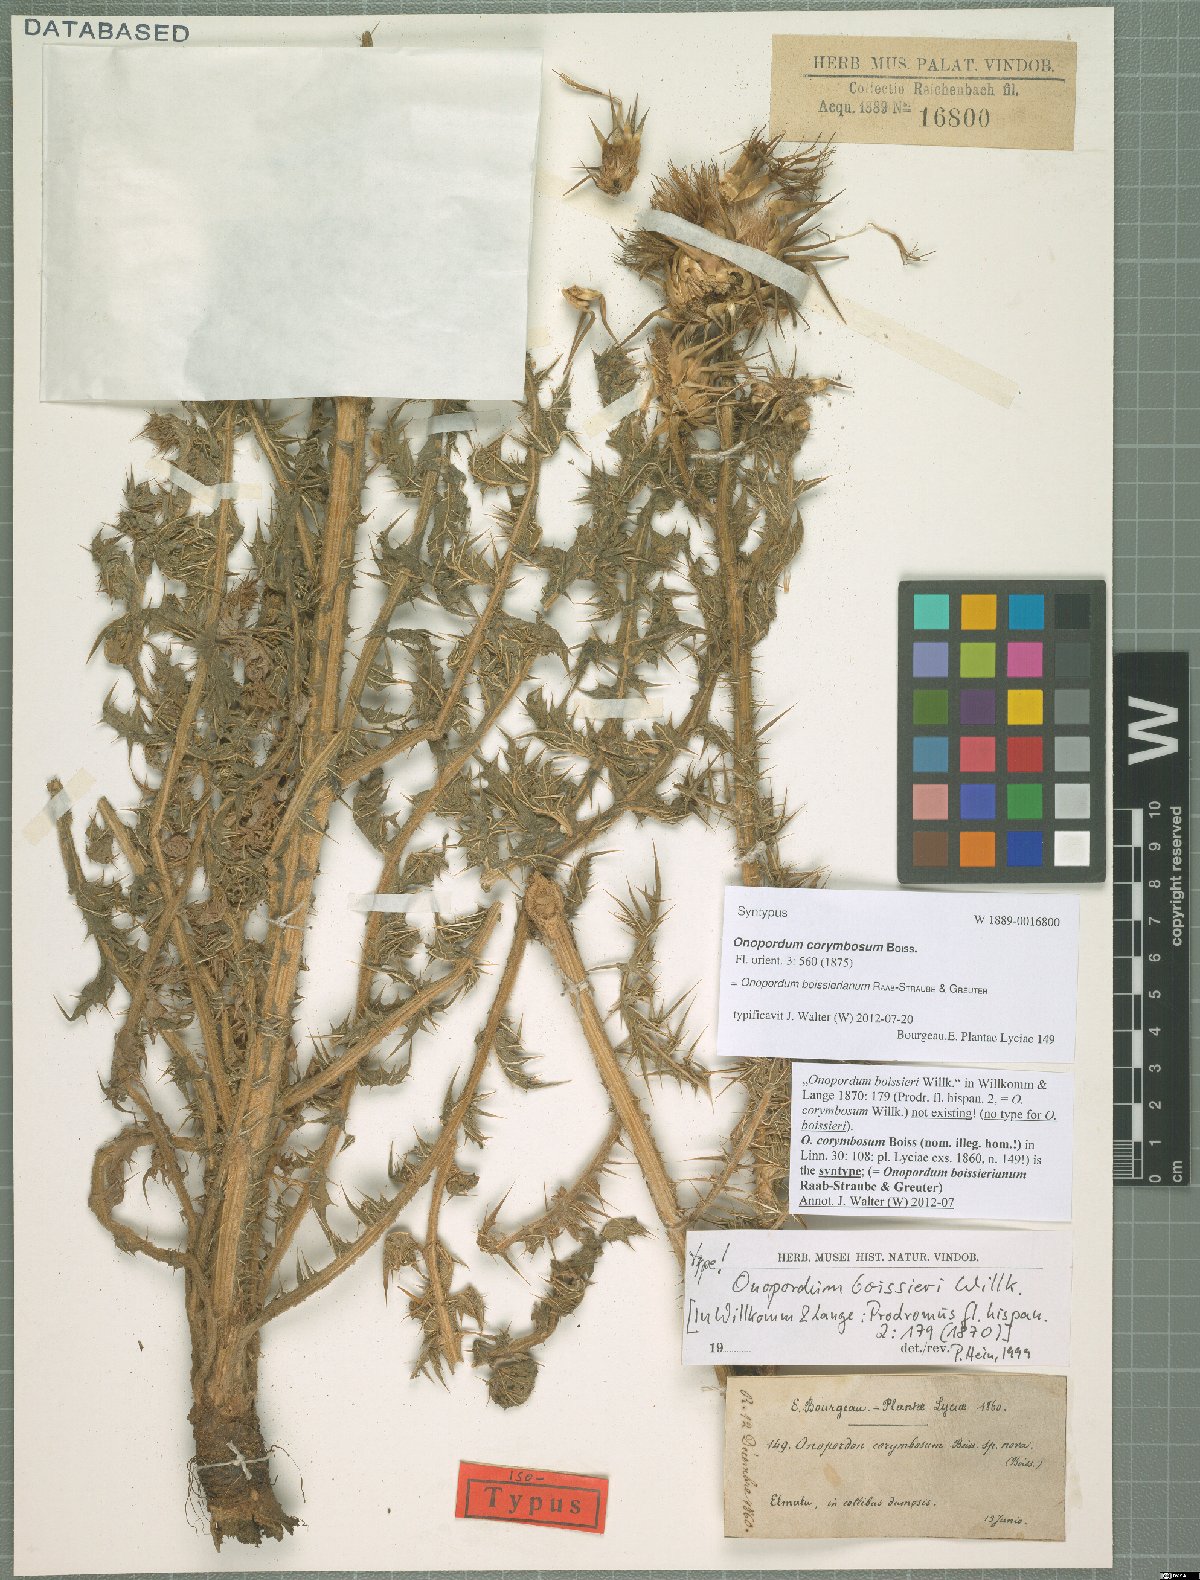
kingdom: Plantae
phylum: Tracheophyta
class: Magnoliopsida
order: Asterales
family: Asteraceae
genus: Onopordum
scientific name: Onopordum boissierianum
